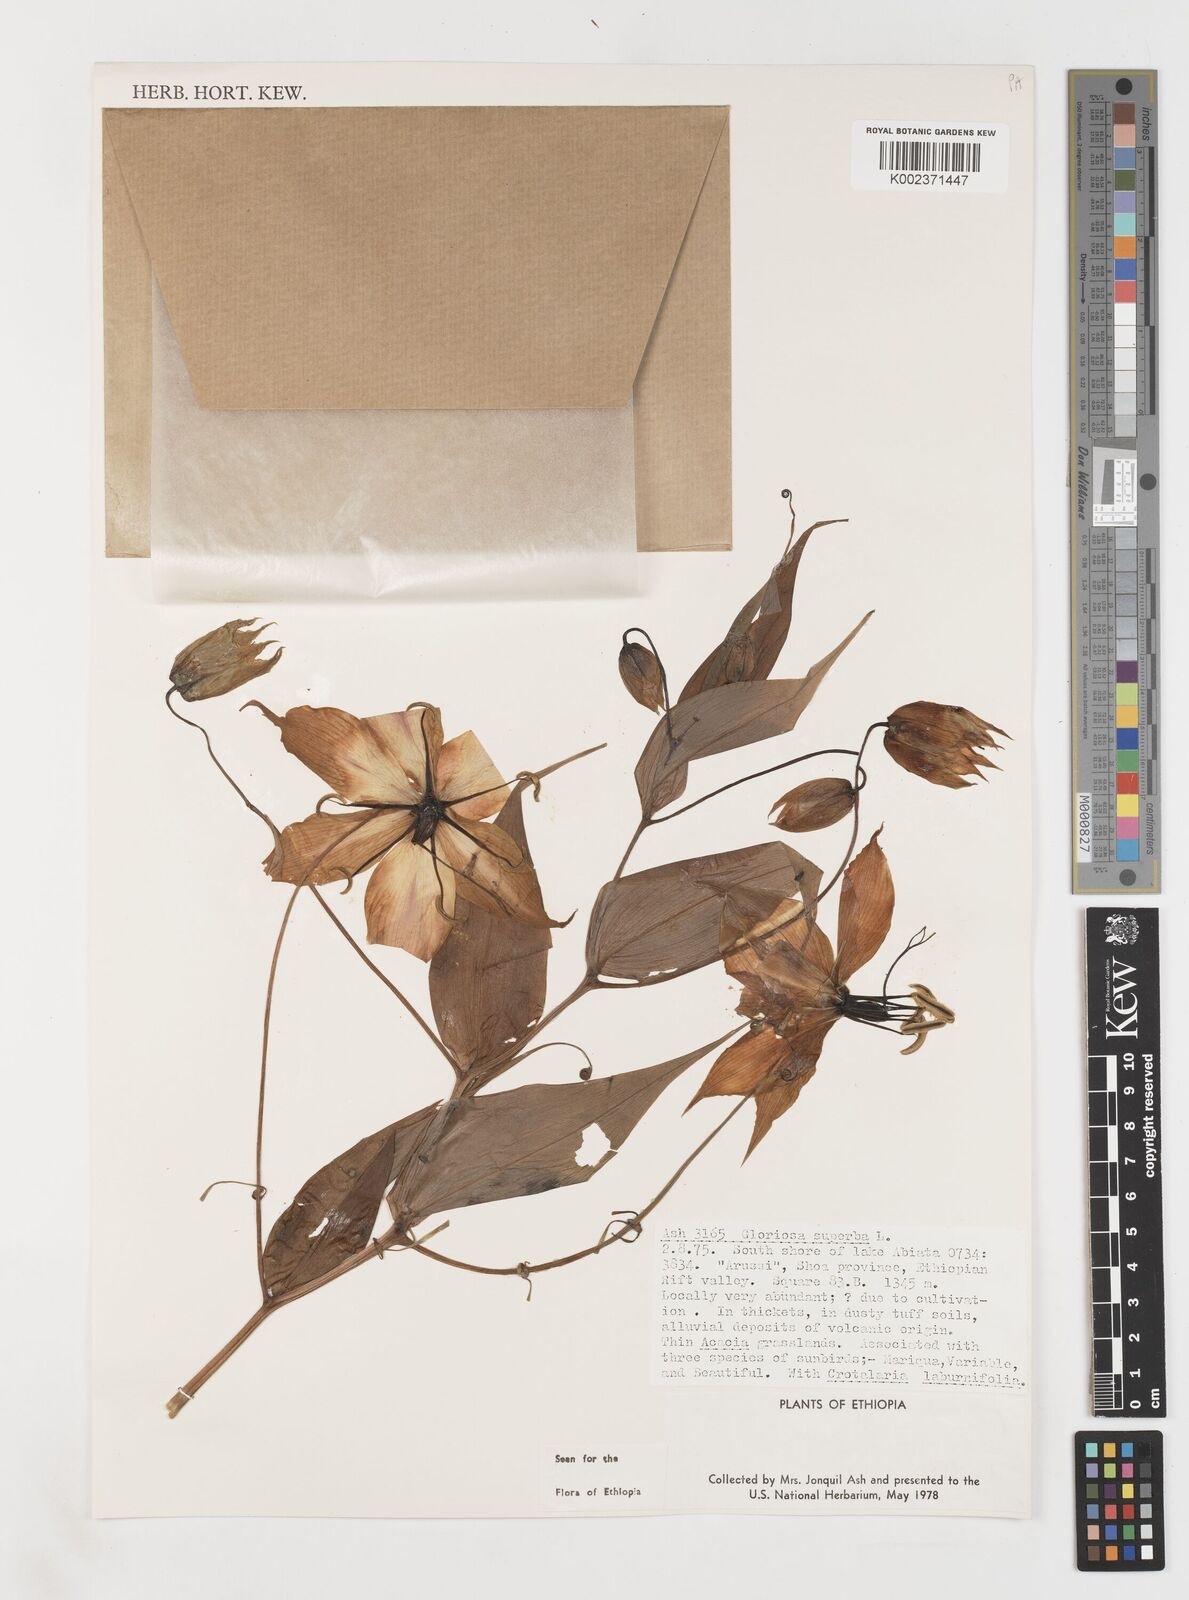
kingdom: Plantae
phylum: Tracheophyta
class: Liliopsida
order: Liliales
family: Colchicaceae
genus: Gloriosa
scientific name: Gloriosa simplex
